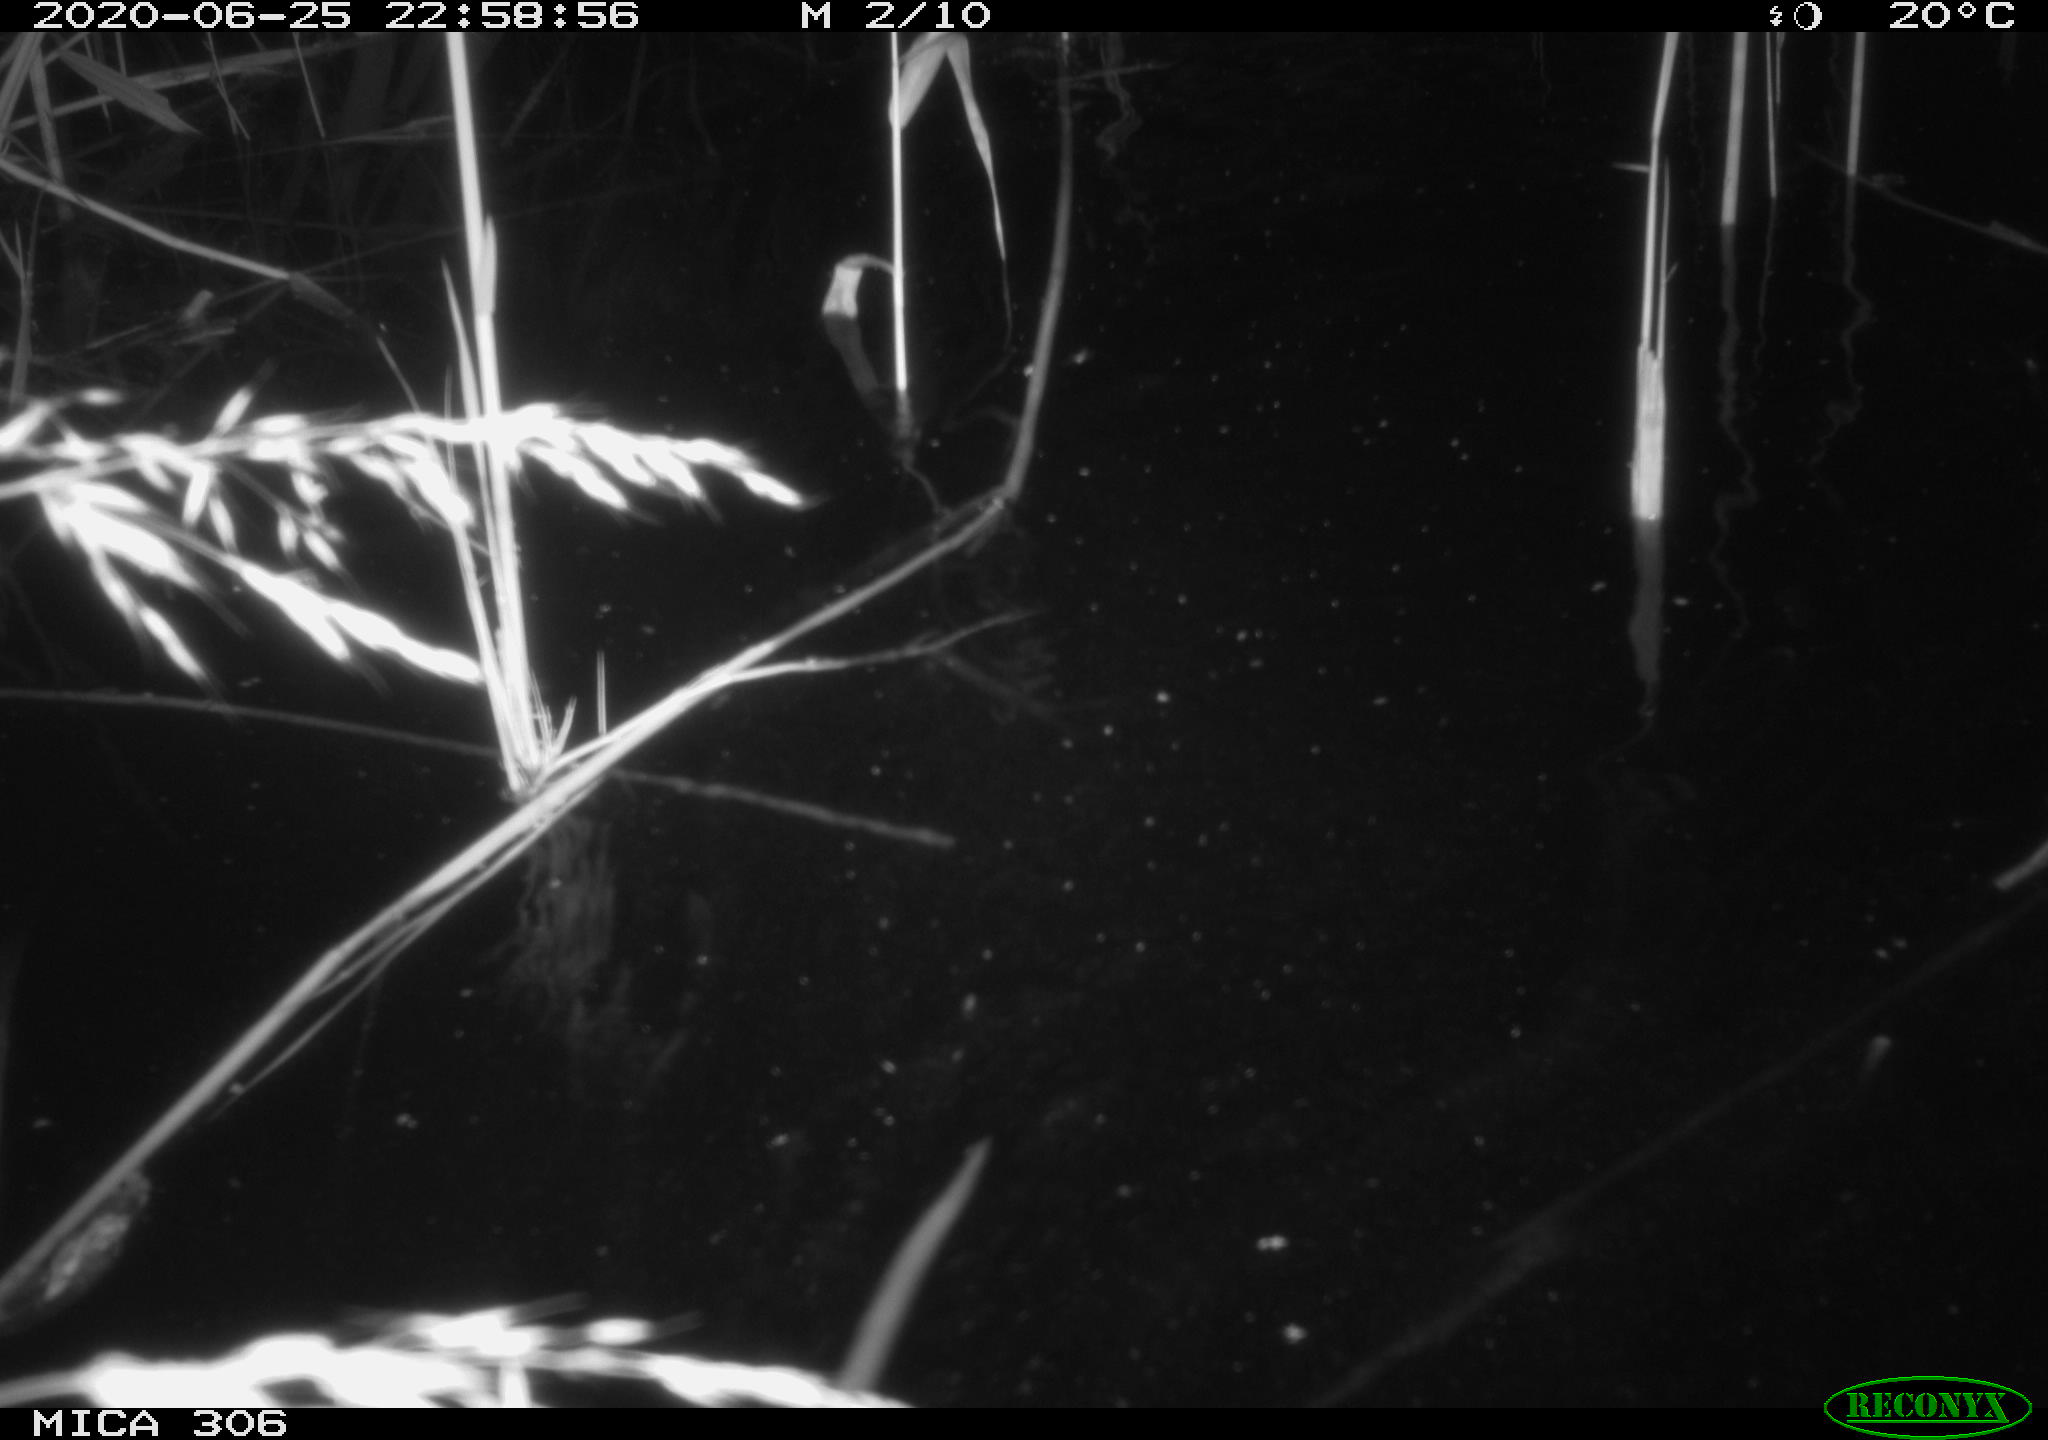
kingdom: Animalia
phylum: Chordata
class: Mammalia
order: Rodentia
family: Muridae
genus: Rattus
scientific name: Rattus norvegicus
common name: Brown rat
